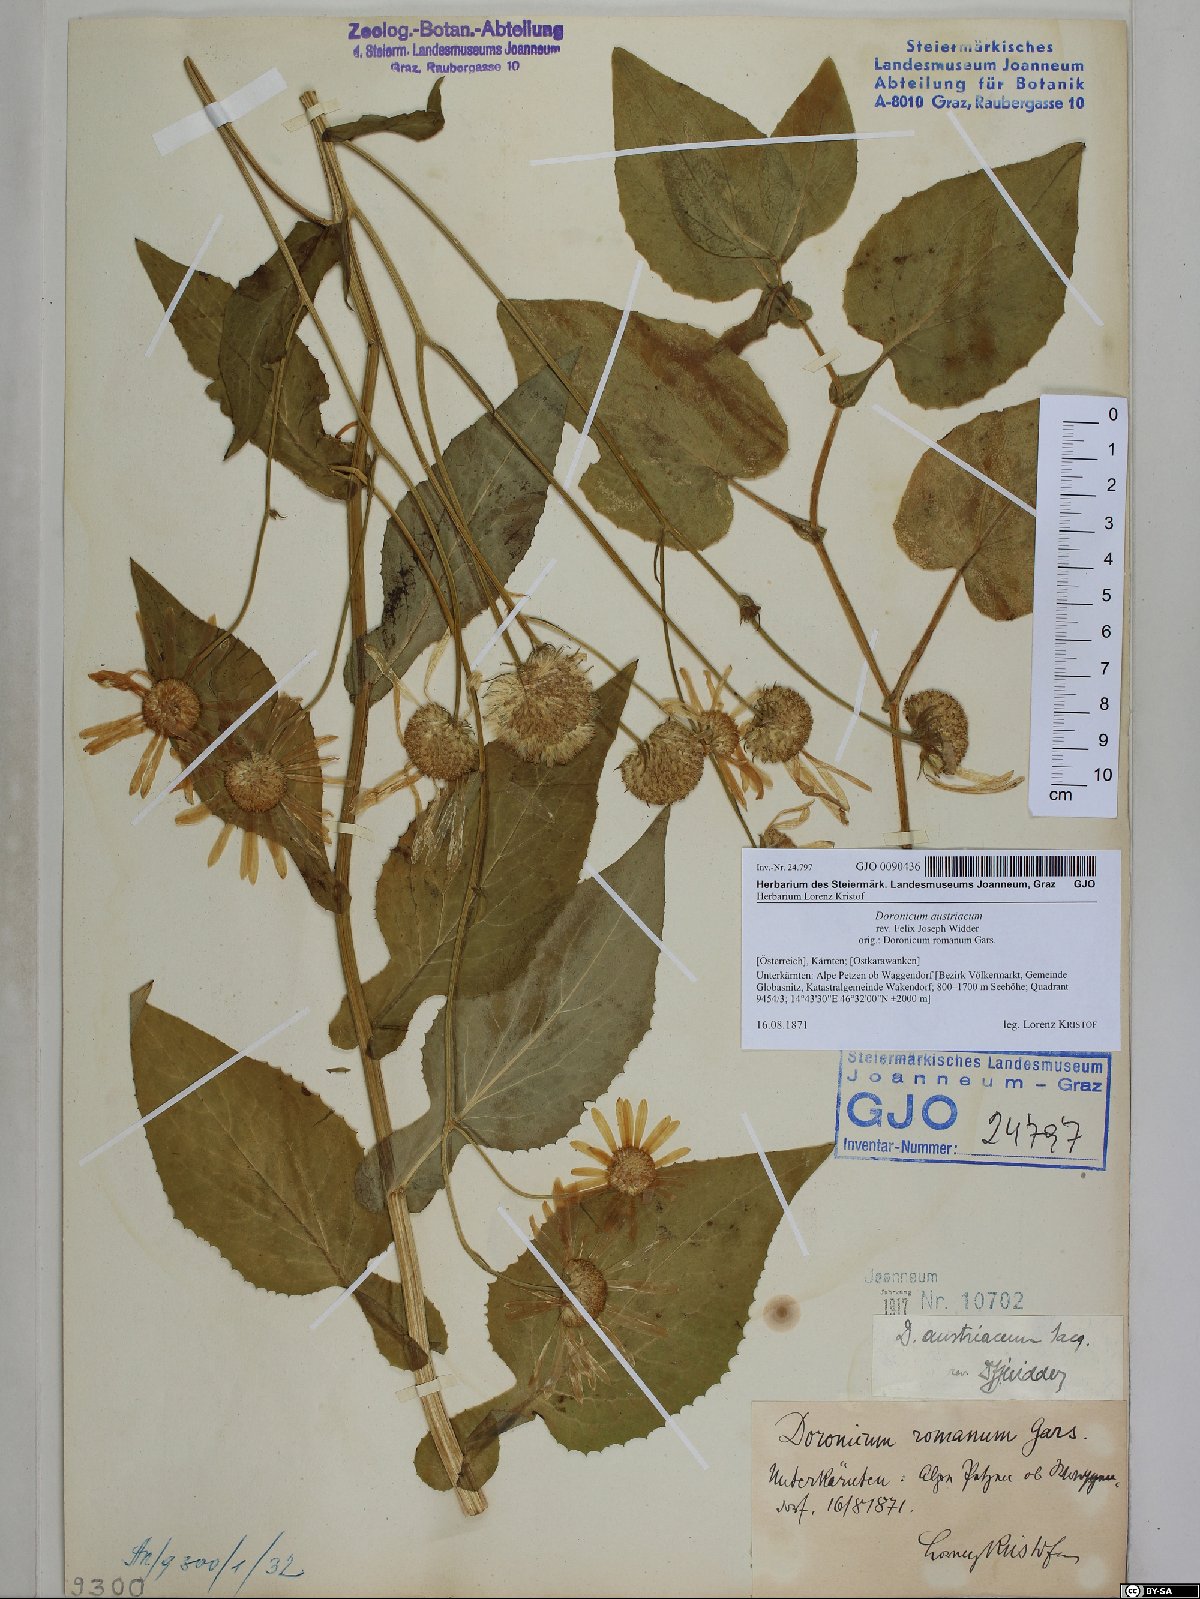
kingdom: Plantae
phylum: Tracheophyta
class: Magnoliopsida
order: Asterales
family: Asteraceae
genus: Doronicum
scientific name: Doronicum austriacum
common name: Austrian leopard's-bane
